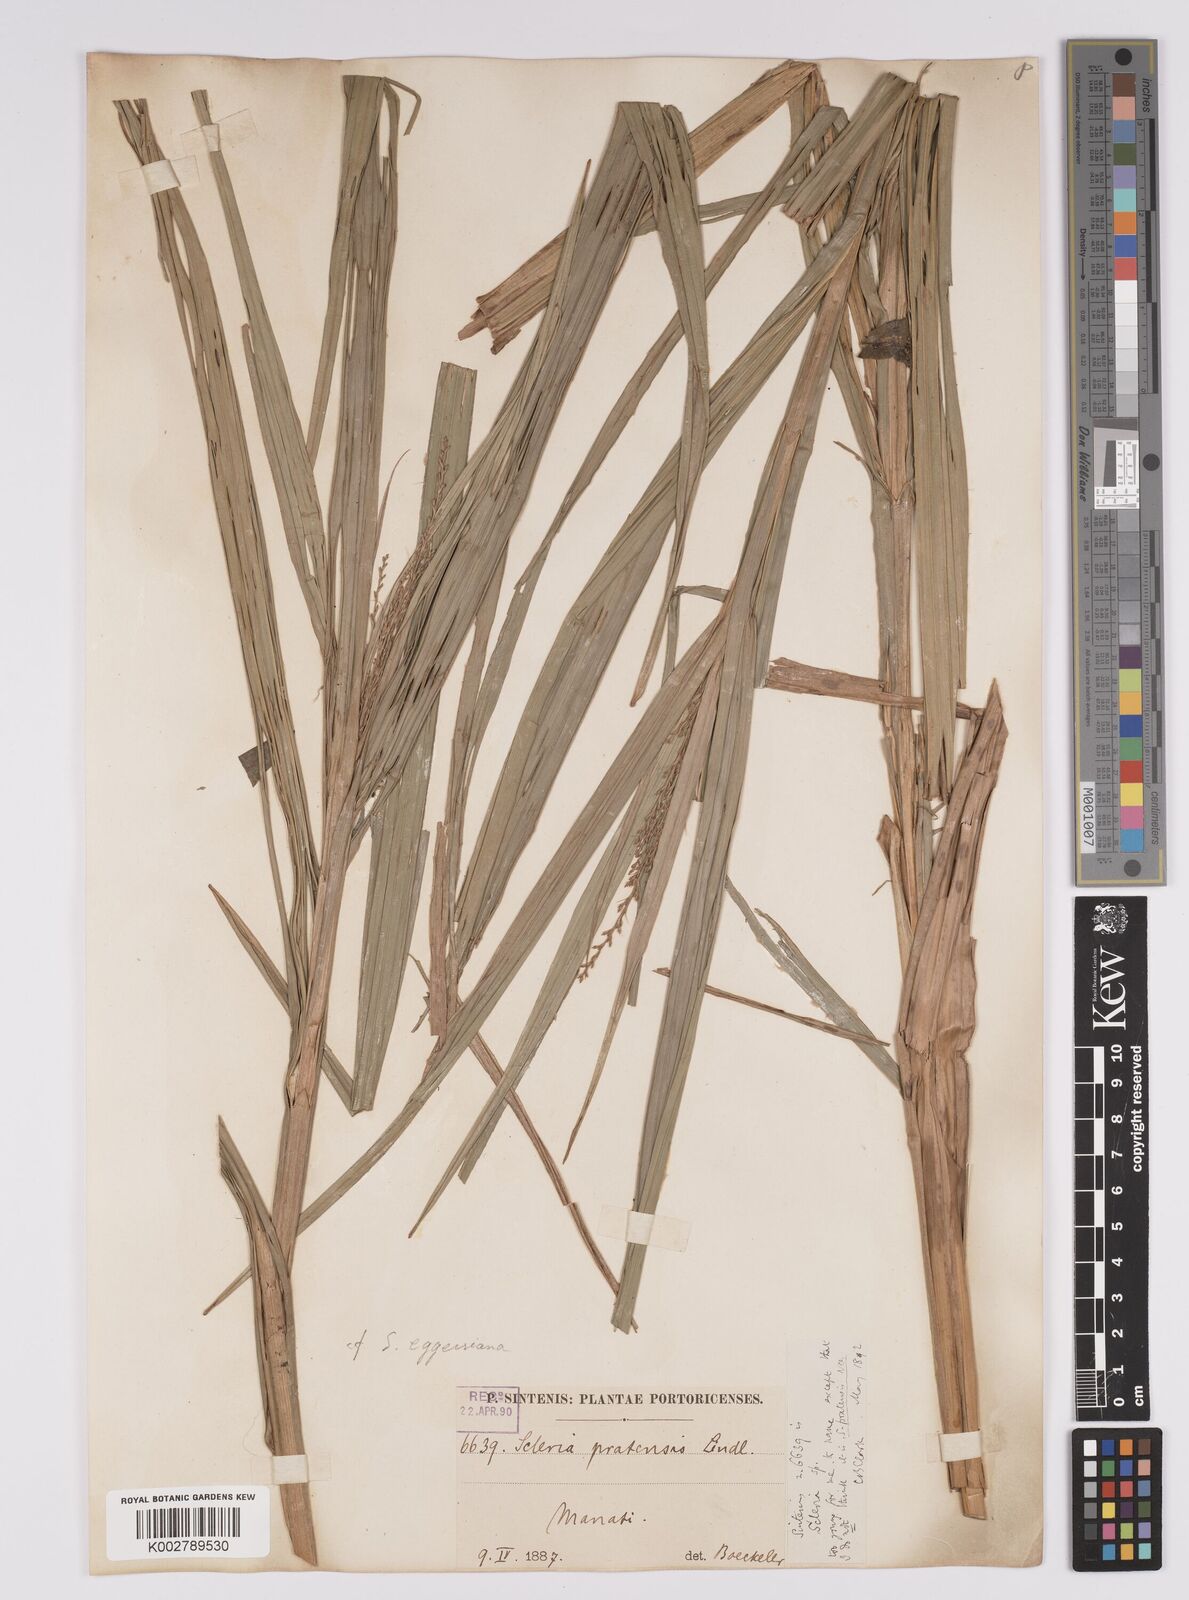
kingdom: Plantae
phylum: Tracheophyta
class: Liliopsida
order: Poales
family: Cyperaceae
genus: Scleria
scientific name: Scleria
